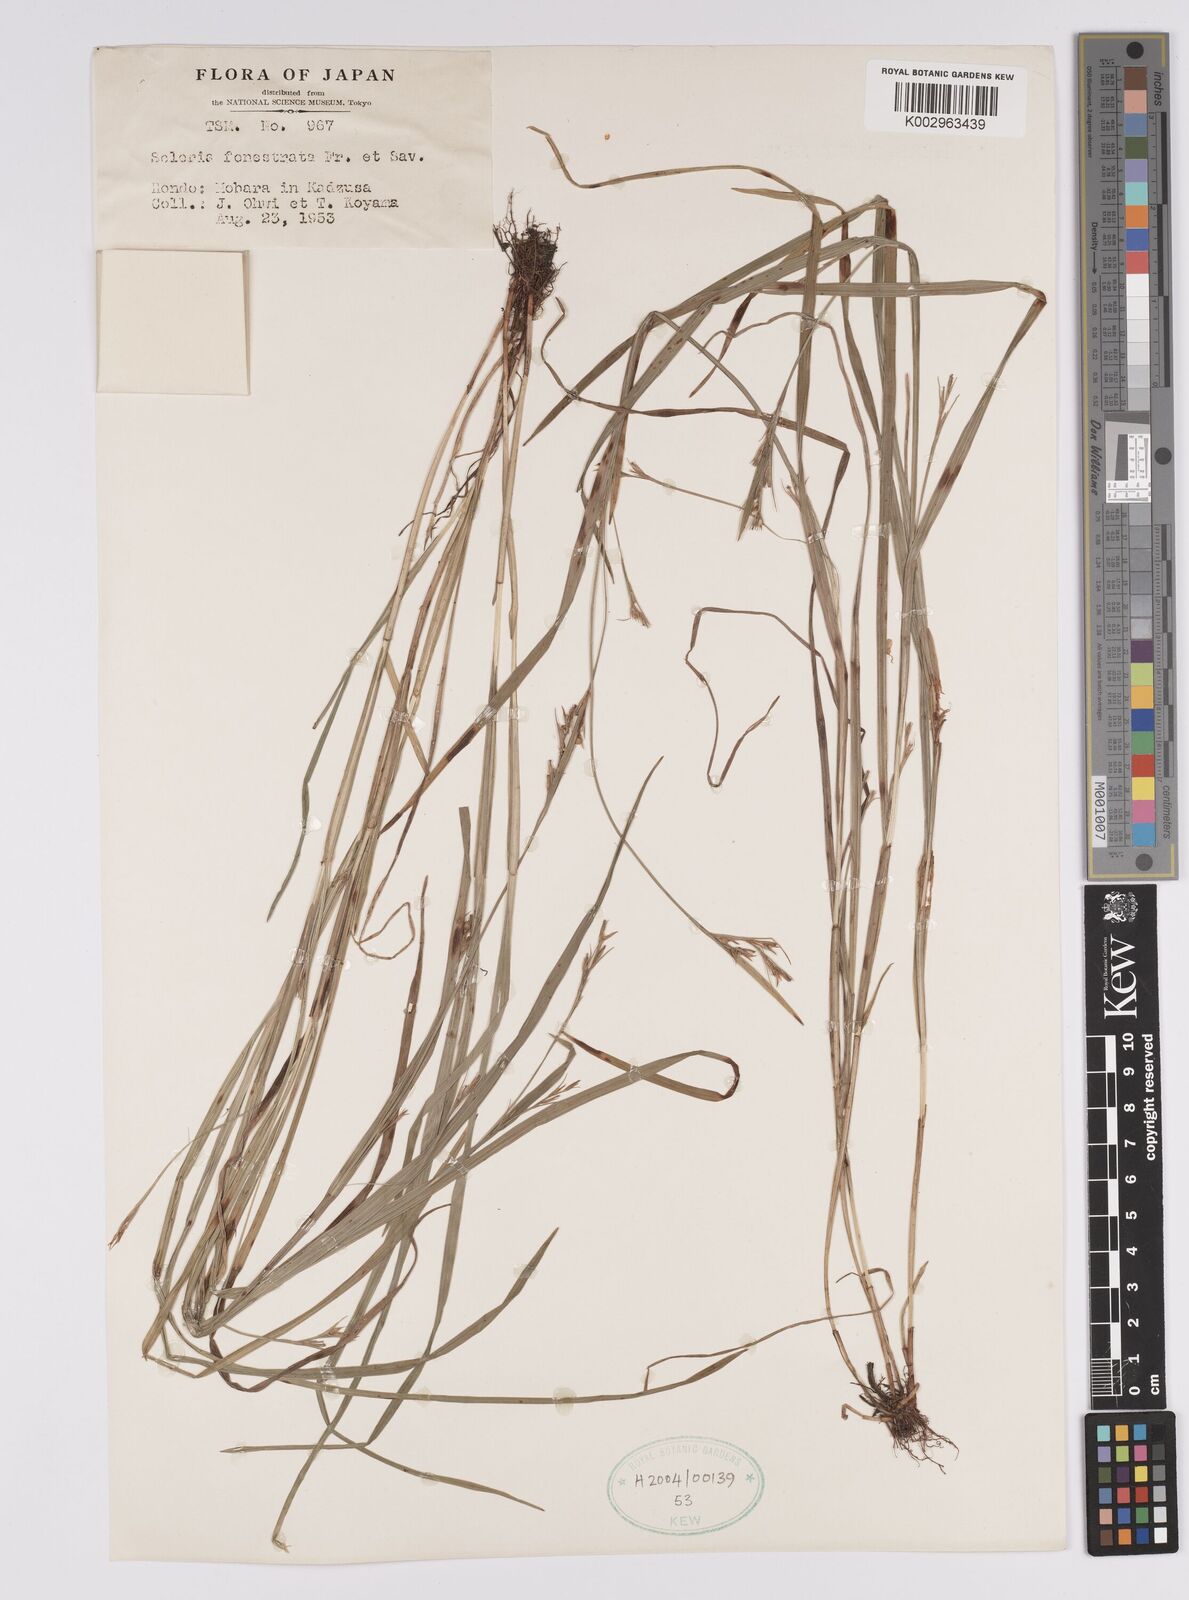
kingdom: Plantae
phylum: Tracheophyta
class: Liliopsida
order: Poales
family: Cyperaceae
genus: Scleria
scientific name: Scleria parvula
